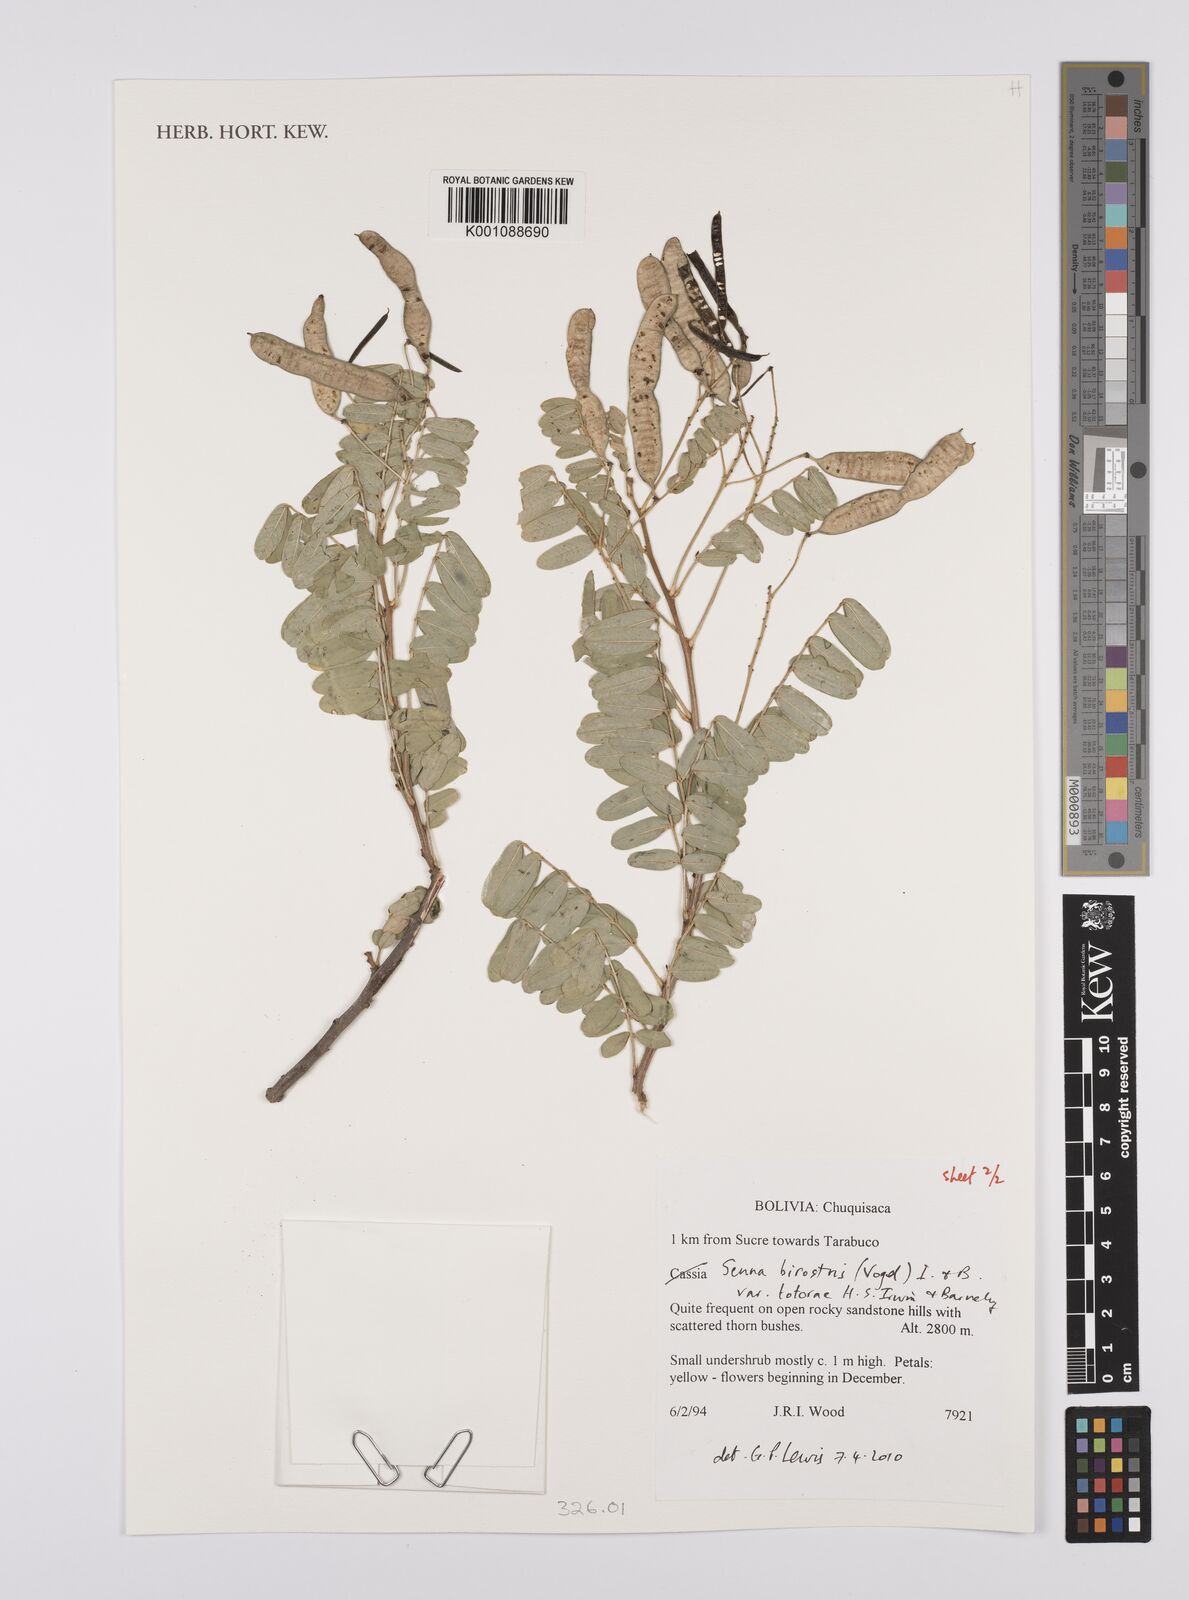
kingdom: Plantae
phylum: Tracheophyta
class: Magnoliopsida
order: Fabales
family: Fabaceae
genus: Senna
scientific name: Senna birostris
